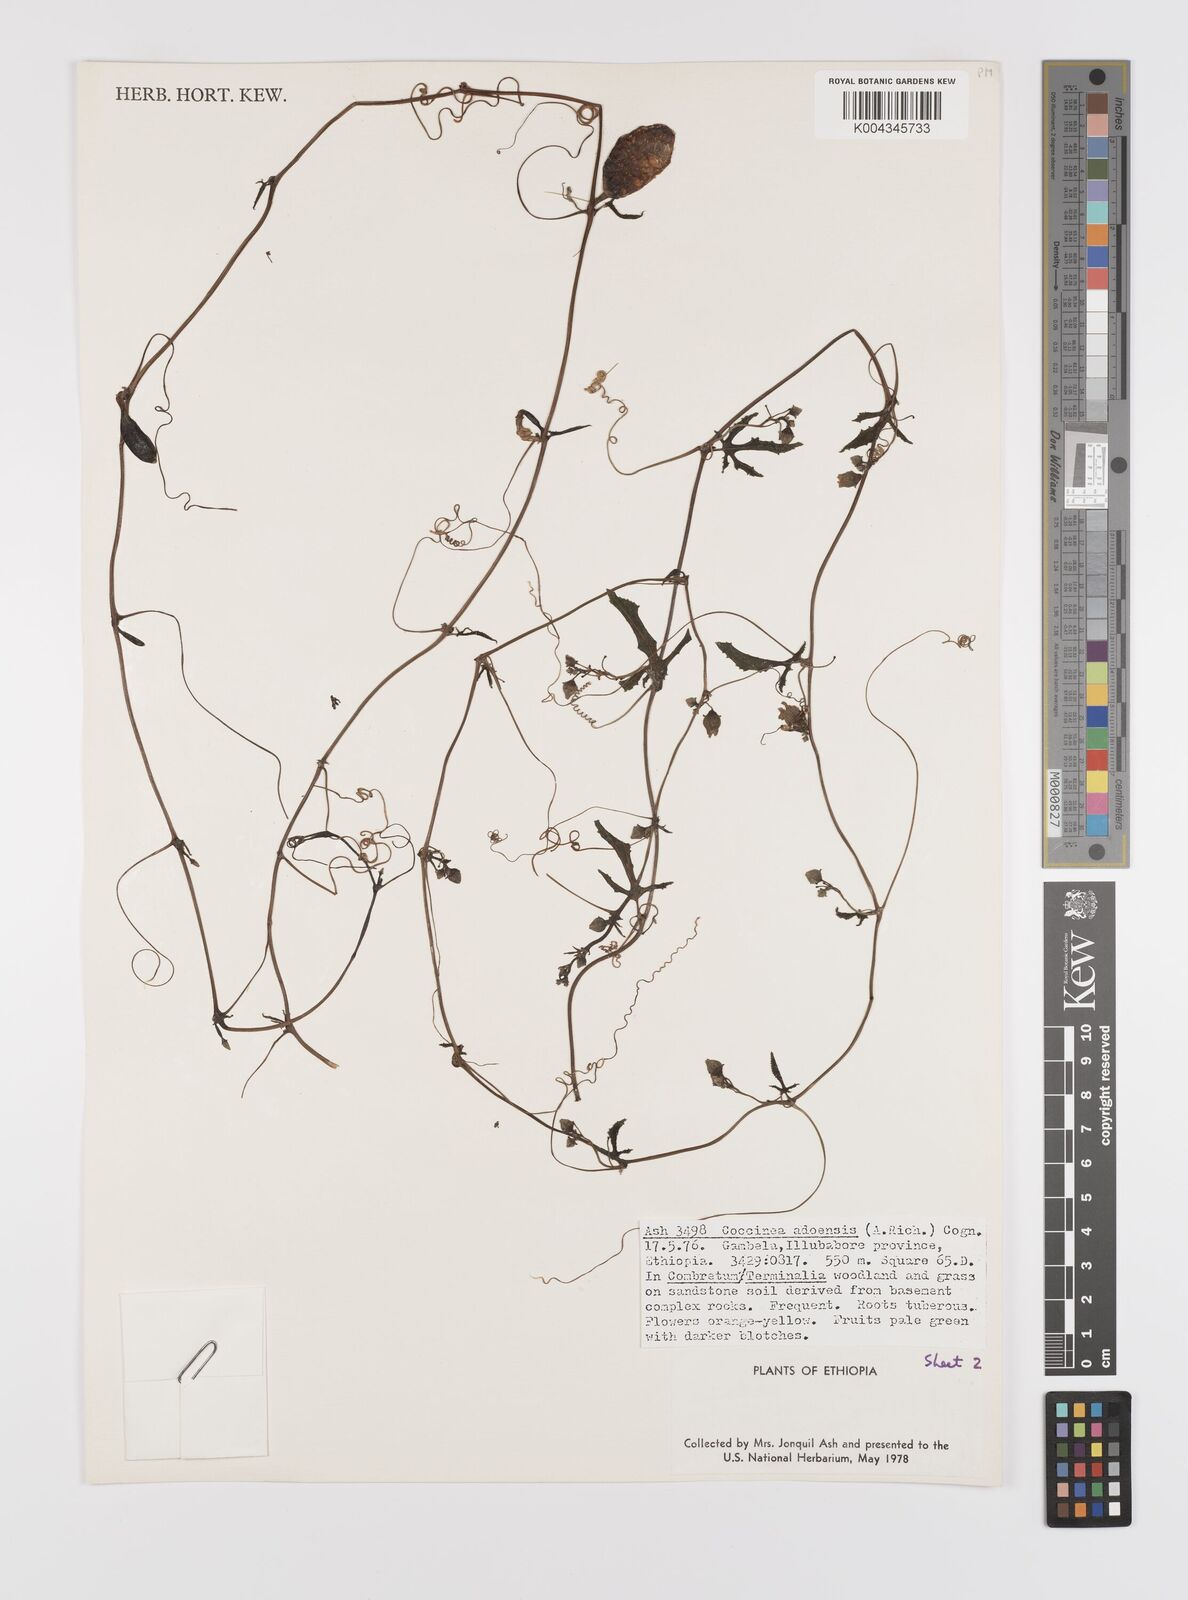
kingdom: Plantae
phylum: Tracheophyta
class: Magnoliopsida
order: Cucurbitales
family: Cucurbitaceae
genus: Coccinia
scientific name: Coccinia adoensis
